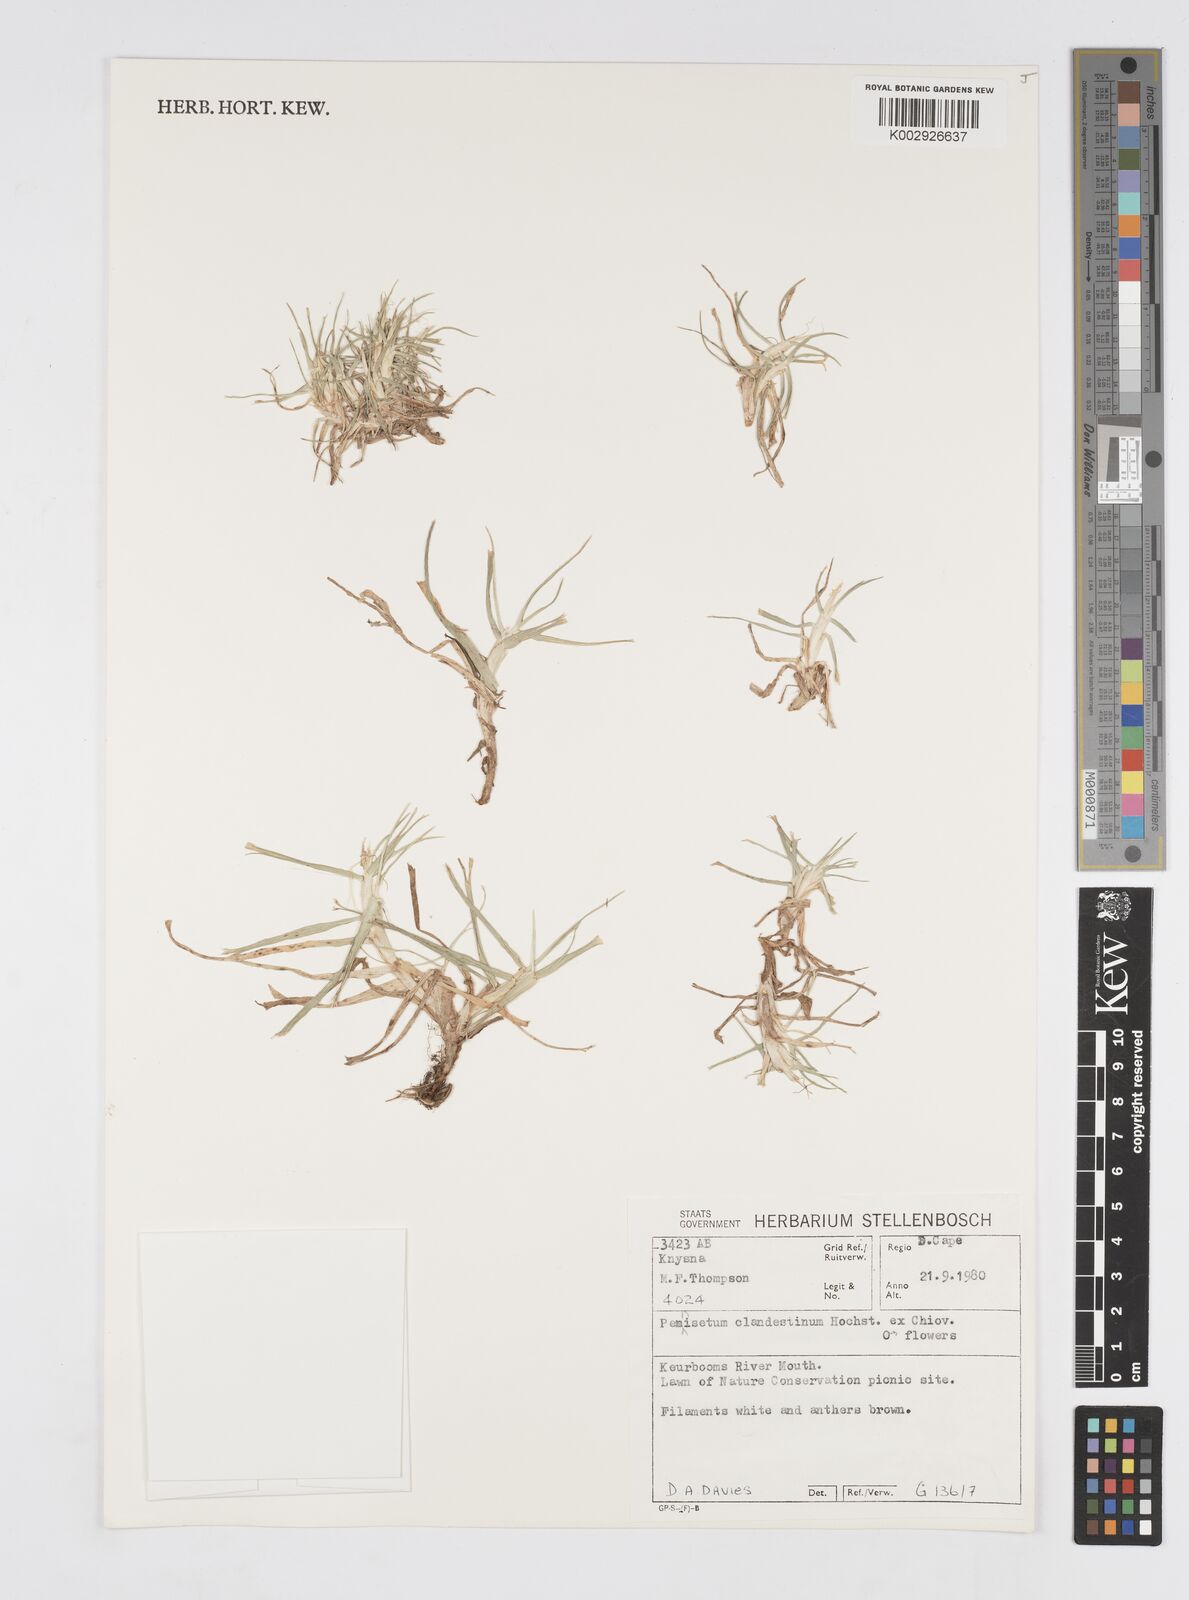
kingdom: Plantae
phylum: Tracheophyta
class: Liliopsida
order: Poales
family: Poaceae
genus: Cenchrus
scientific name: Cenchrus clandestinus
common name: Kikuyugrass
